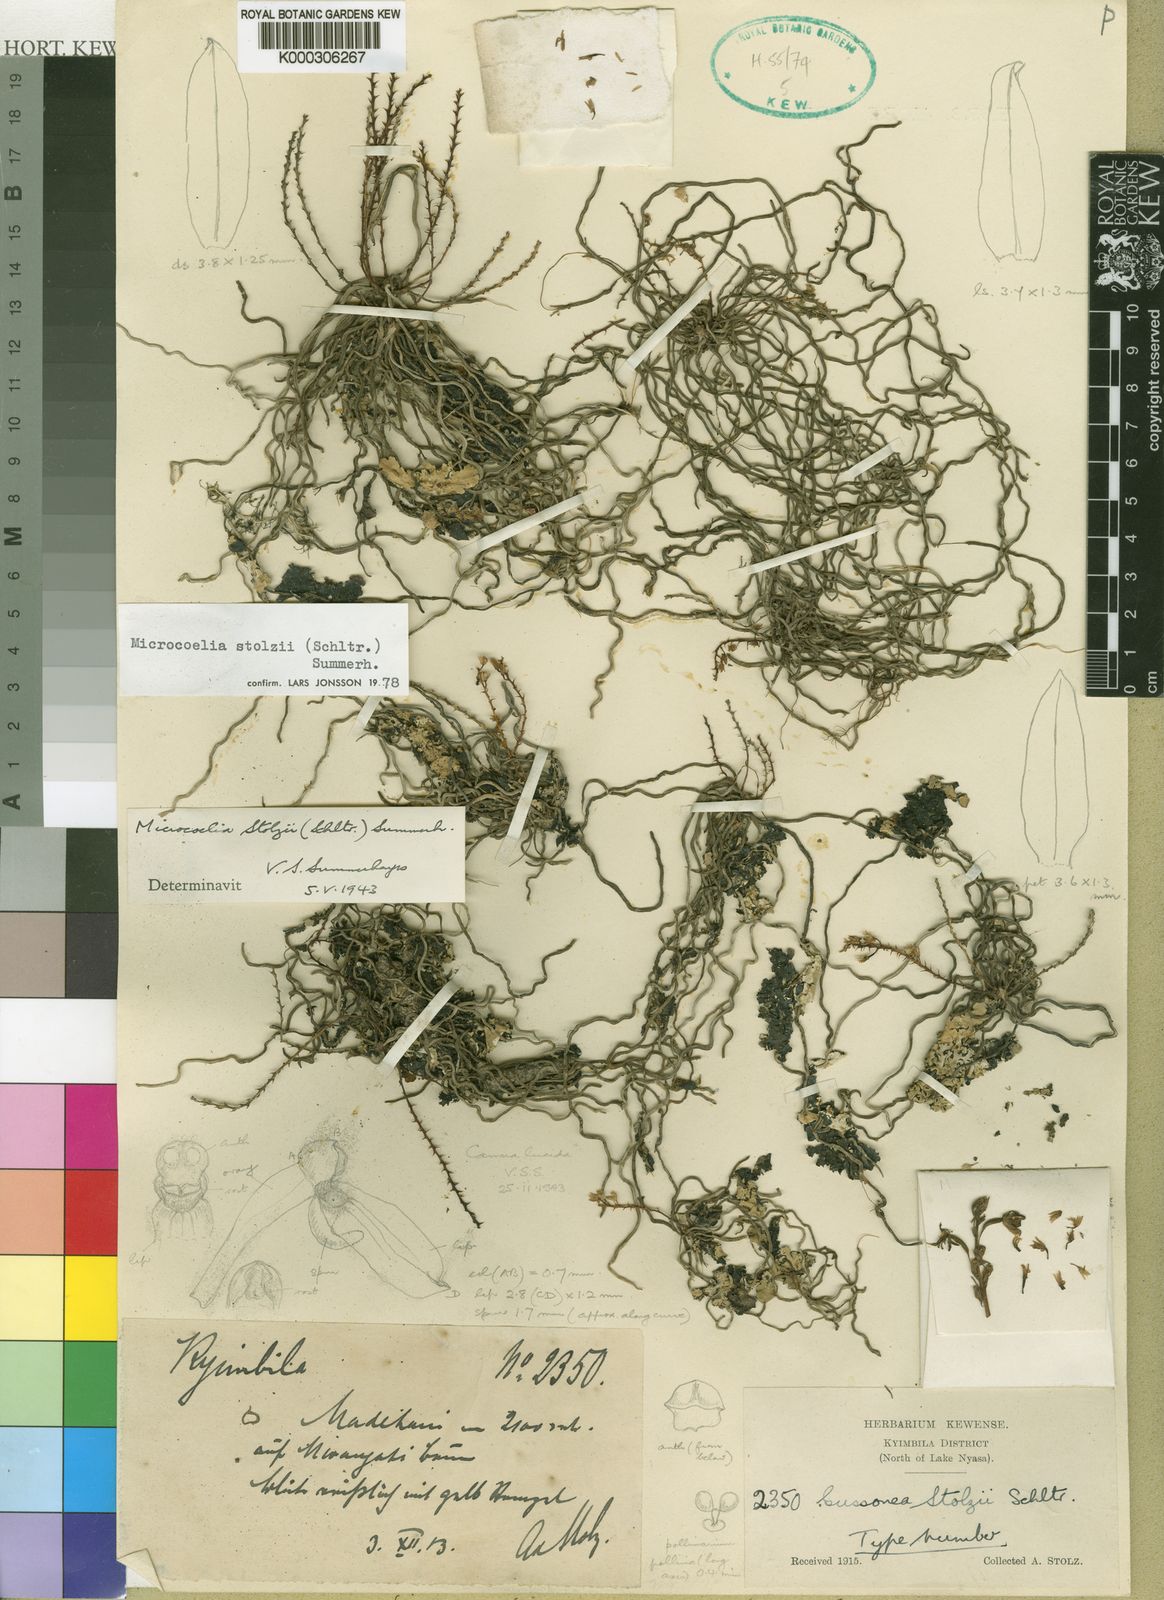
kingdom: Plantae
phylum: Tracheophyta
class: Liliopsida
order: Asparagales
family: Orchidaceae
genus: Microcoelia
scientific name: Microcoelia stolzii
